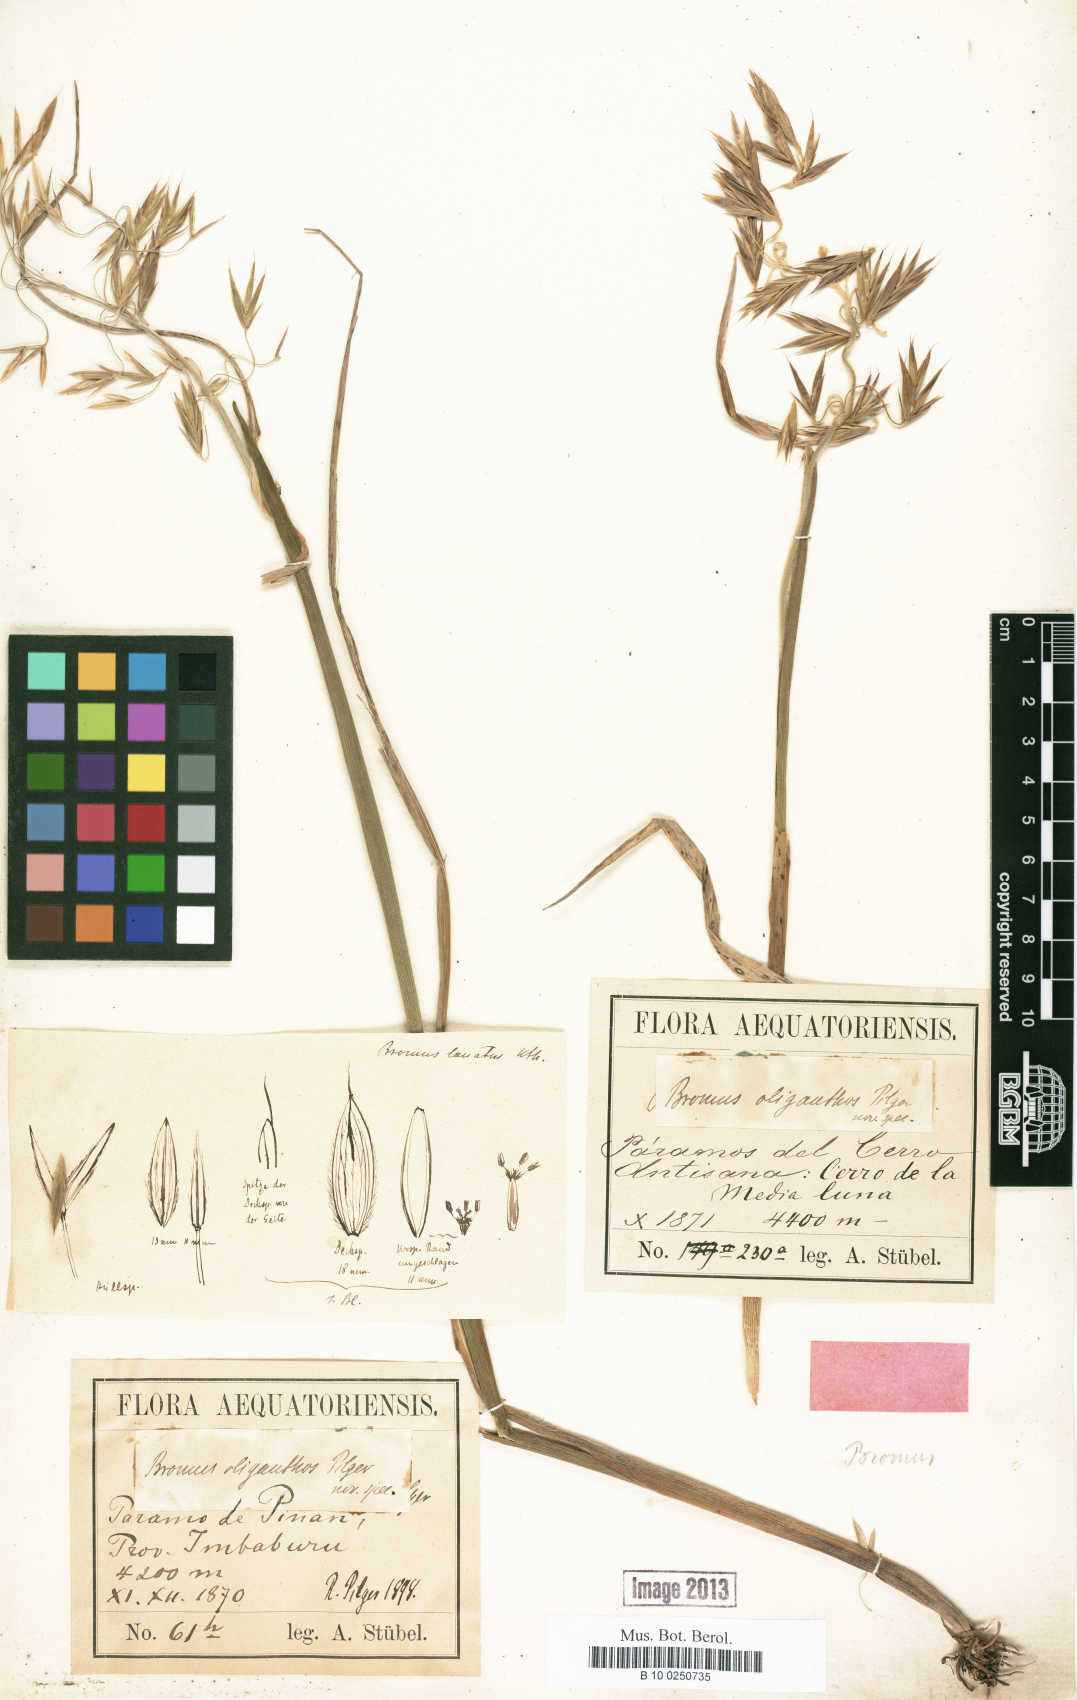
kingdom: Plantae
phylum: Tracheophyta
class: Liliopsida
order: Poales
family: Poaceae
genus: Bromus
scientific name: Bromus lanatus
